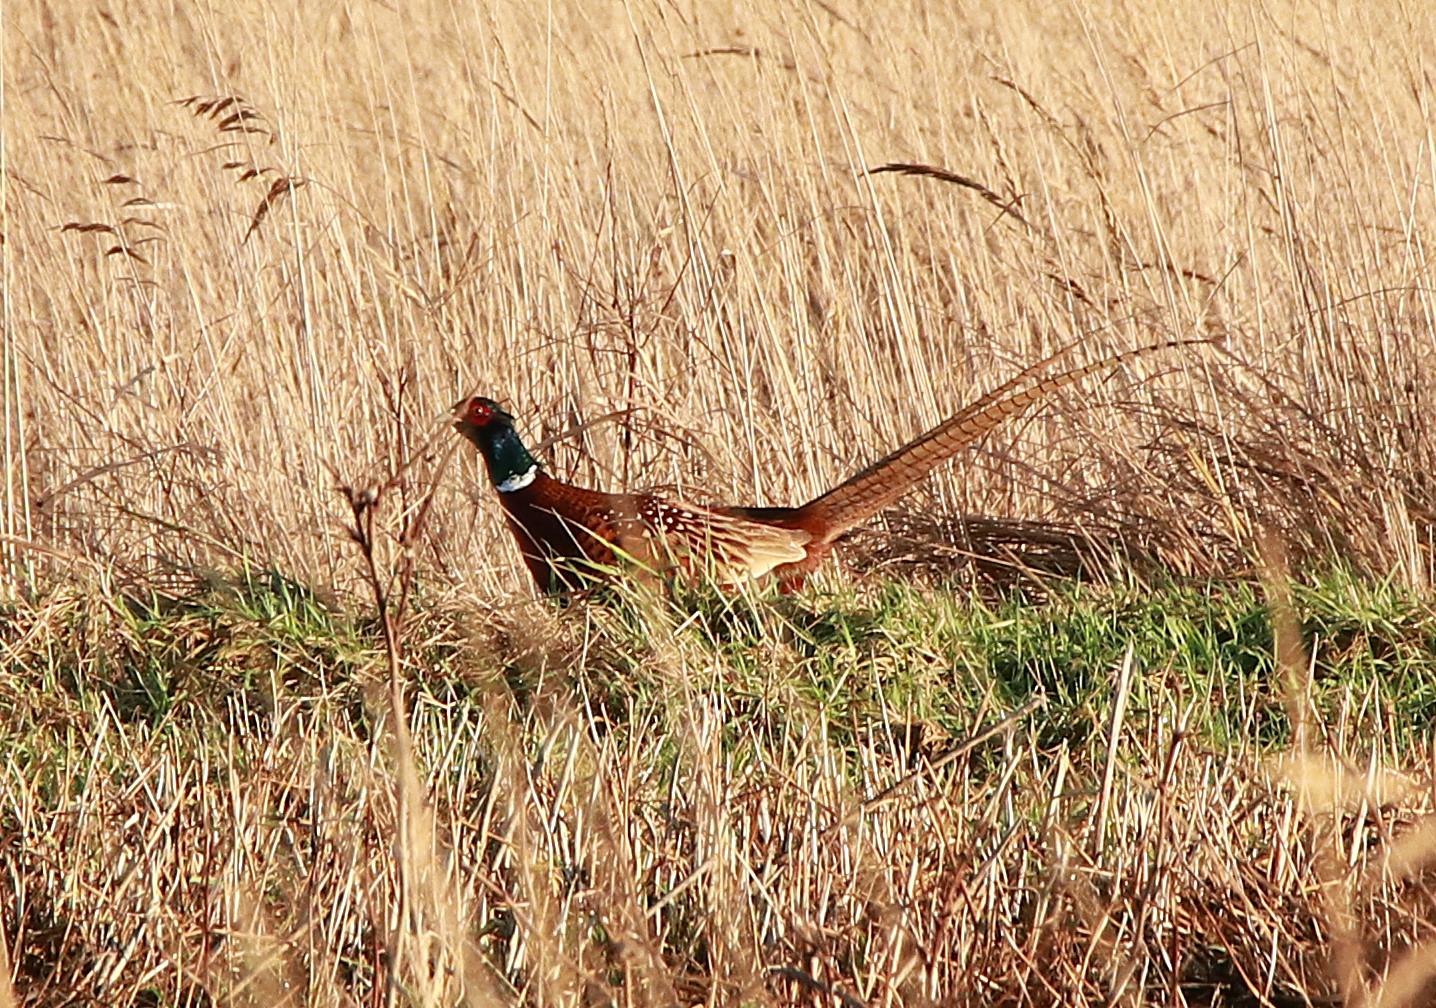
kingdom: Animalia
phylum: Chordata
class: Aves
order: Galliformes
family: Phasianidae
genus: Phasianus
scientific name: Phasianus colchicus
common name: Fasan
